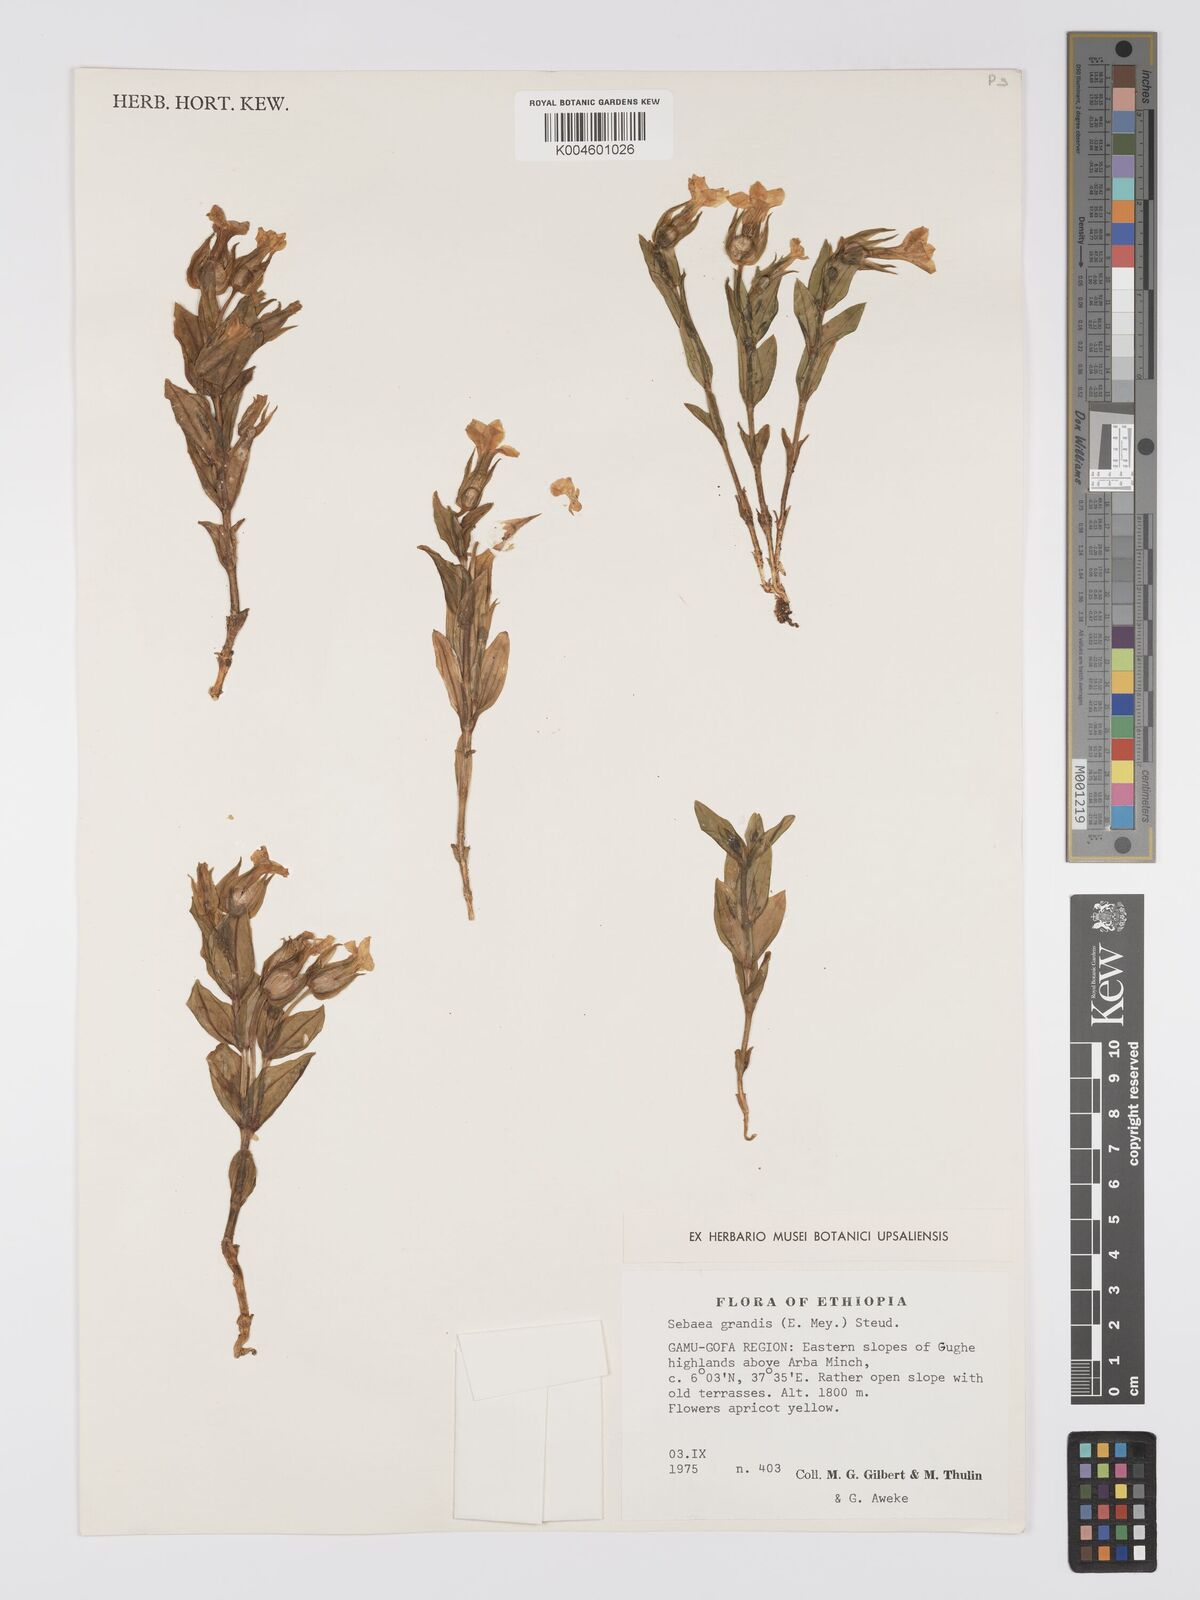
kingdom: Plantae
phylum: Tracheophyta
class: Magnoliopsida
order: Gentianales
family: Gentianaceae
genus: Exochaenium
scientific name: Exochaenium grande
